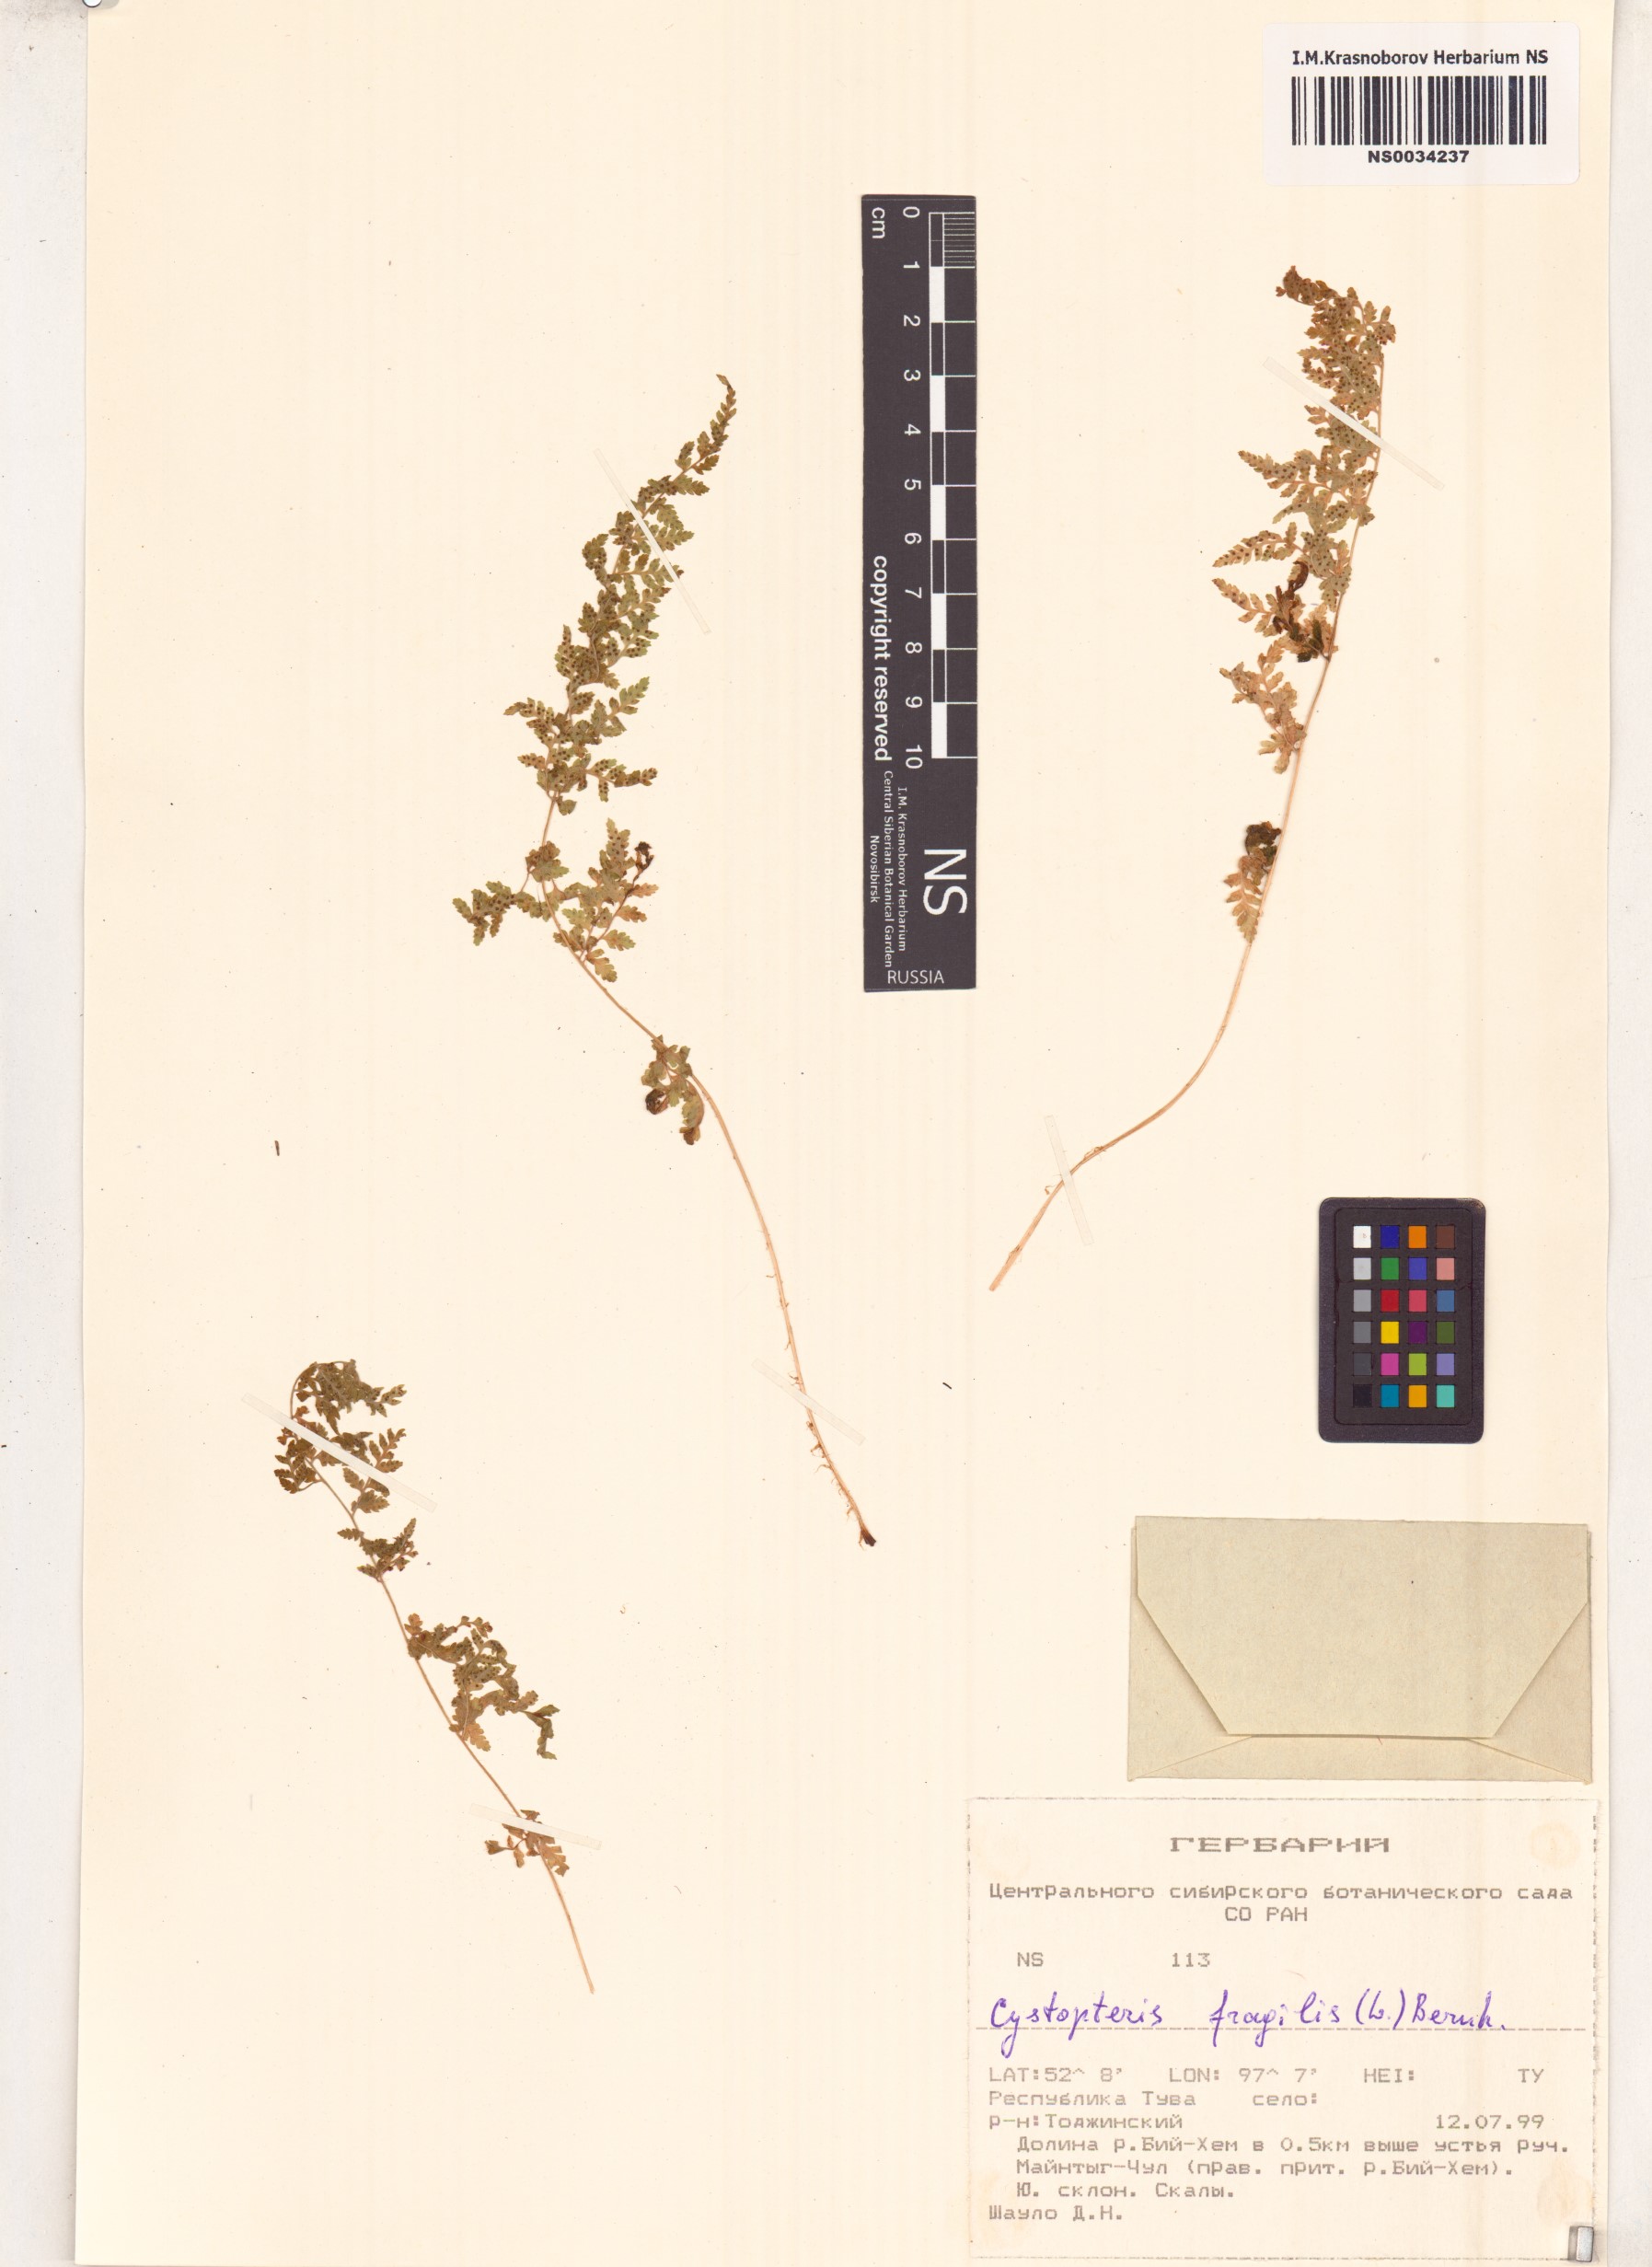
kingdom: Plantae
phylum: Tracheophyta
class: Polypodiopsida
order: Polypodiales
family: Cystopteridaceae
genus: Cystopteris
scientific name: Cystopteris fragilis
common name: Brittle bladder fern
